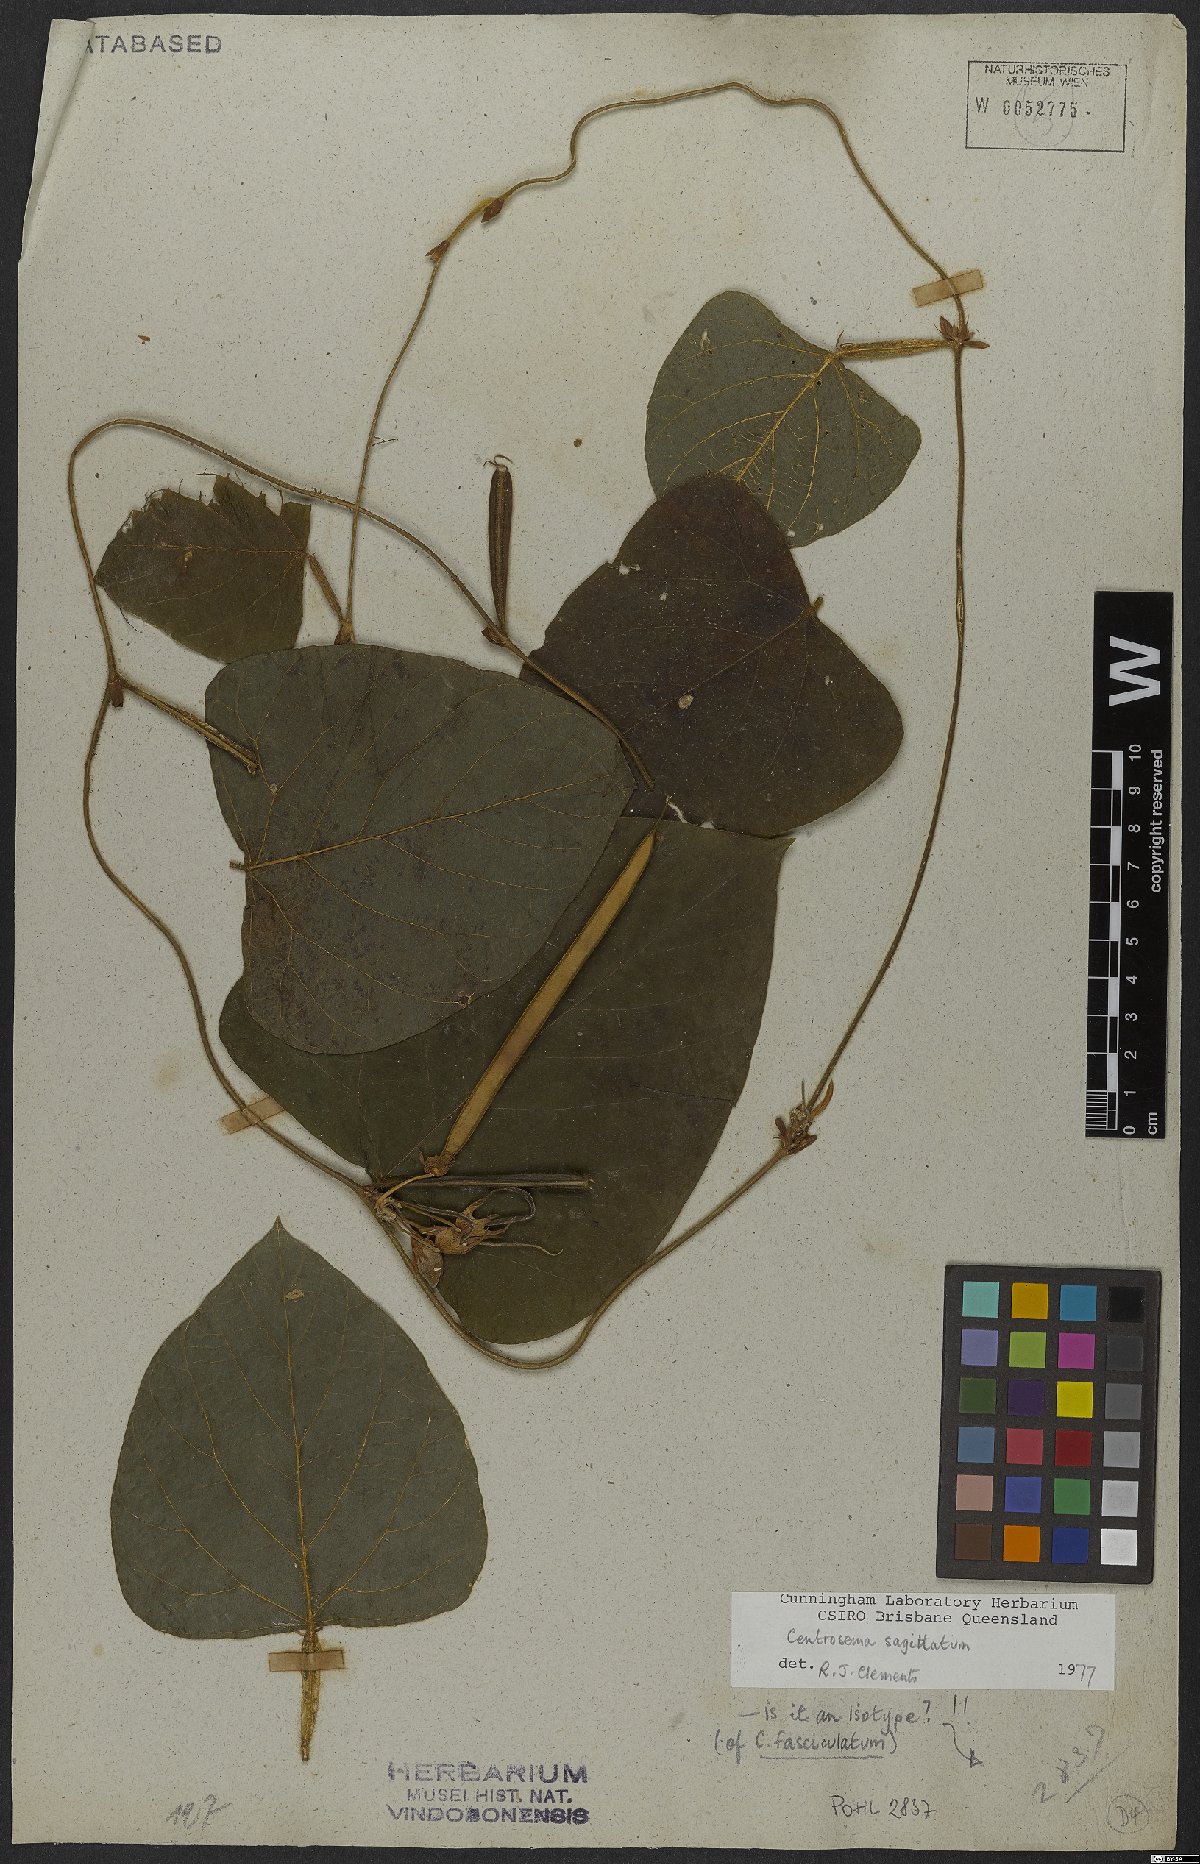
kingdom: Plantae
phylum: Tracheophyta
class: Magnoliopsida
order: Fabales
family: Fabaceae
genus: Centrosema
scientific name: Centrosema fasciculatum
